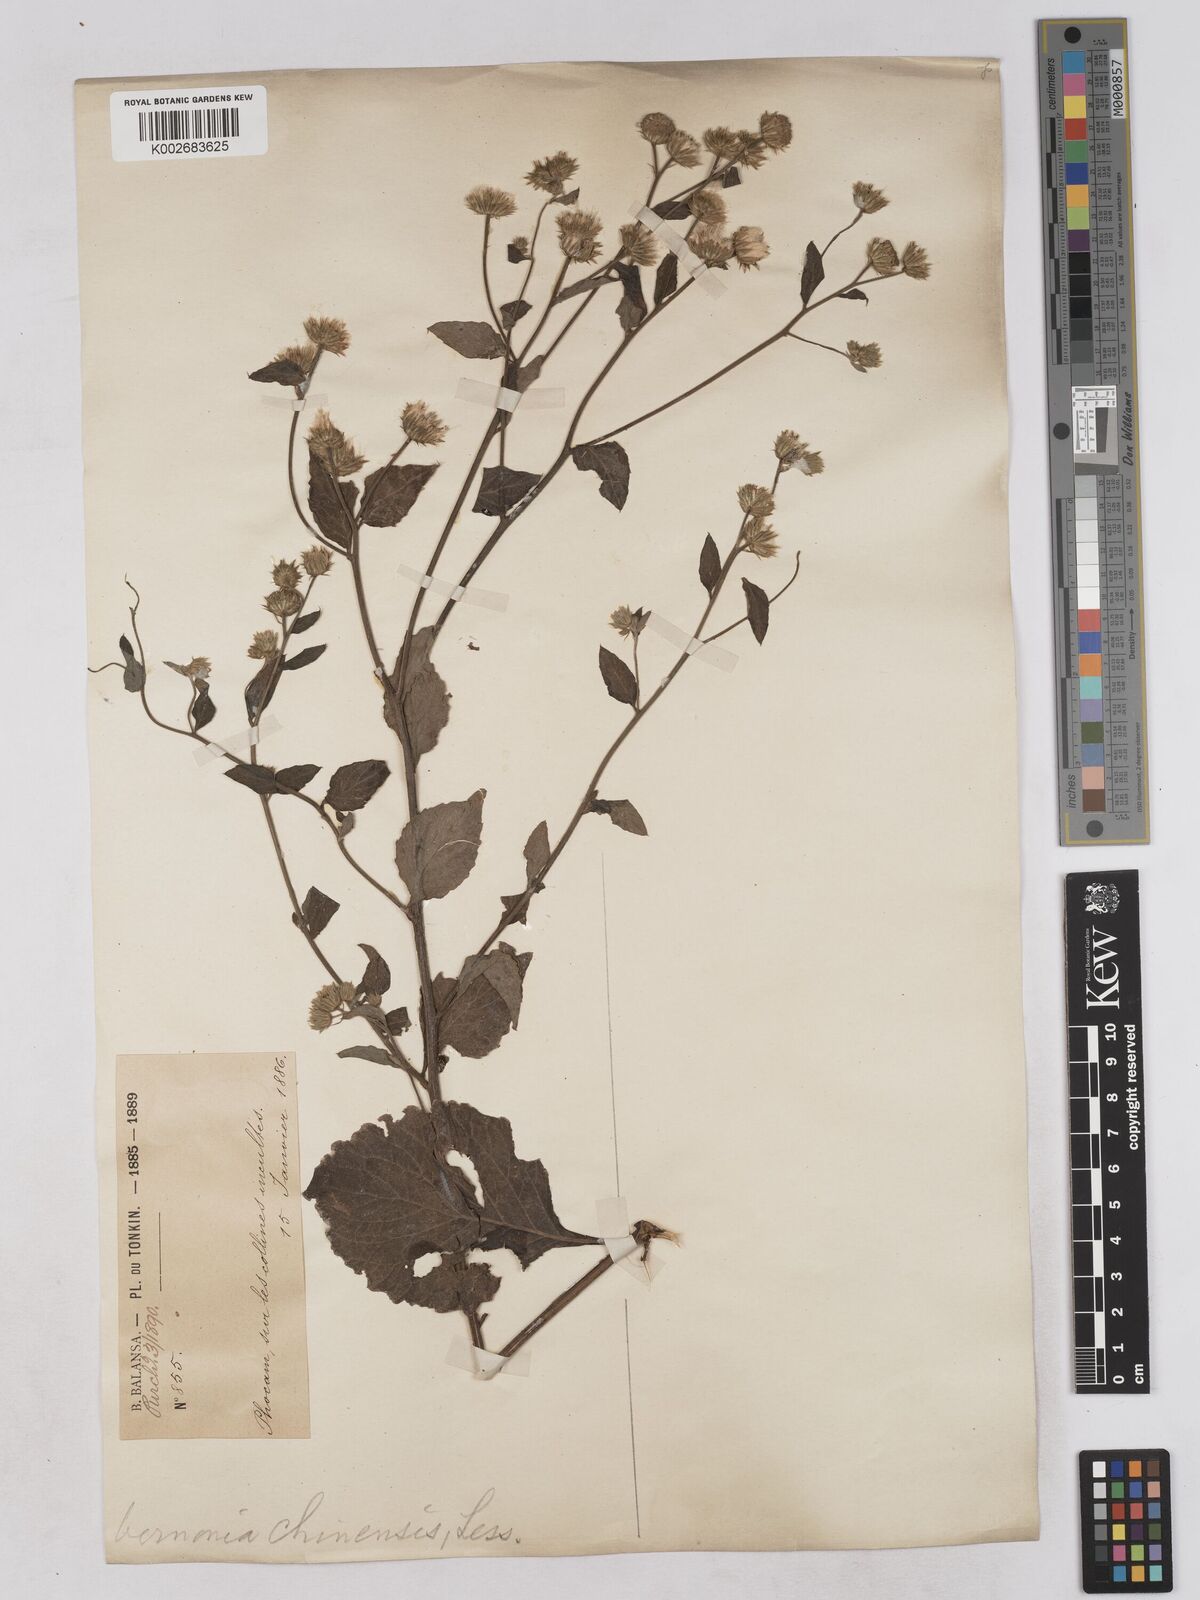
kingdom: Plantae
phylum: Tracheophyta
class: Magnoliopsida
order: Asterales
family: Asteraceae
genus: Cyanthillium
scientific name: Cyanthillium patulum
